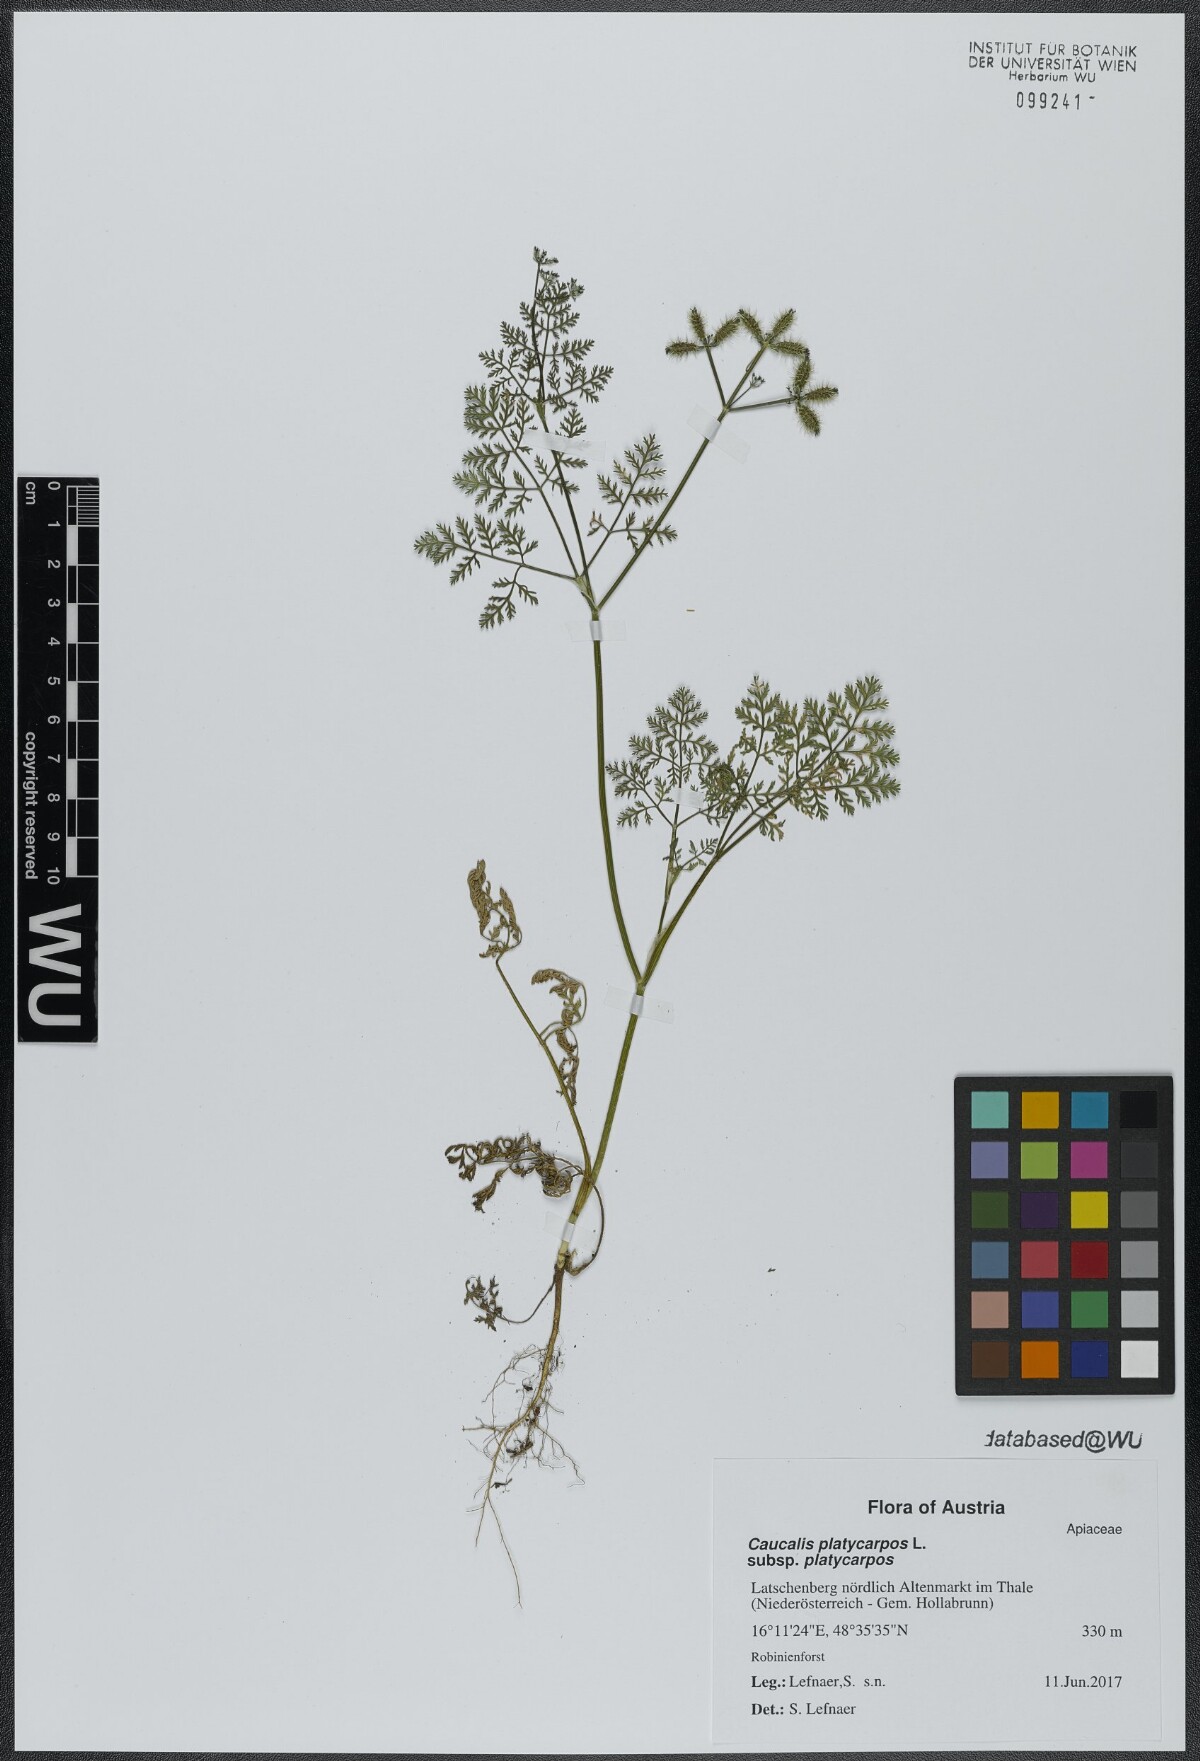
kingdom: Plantae
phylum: Tracheophyta
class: Magnoliopsida
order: Apiales
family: Apiaceae
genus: Caucalis
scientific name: Caucalis platycarpos
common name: Small bur-parsley
